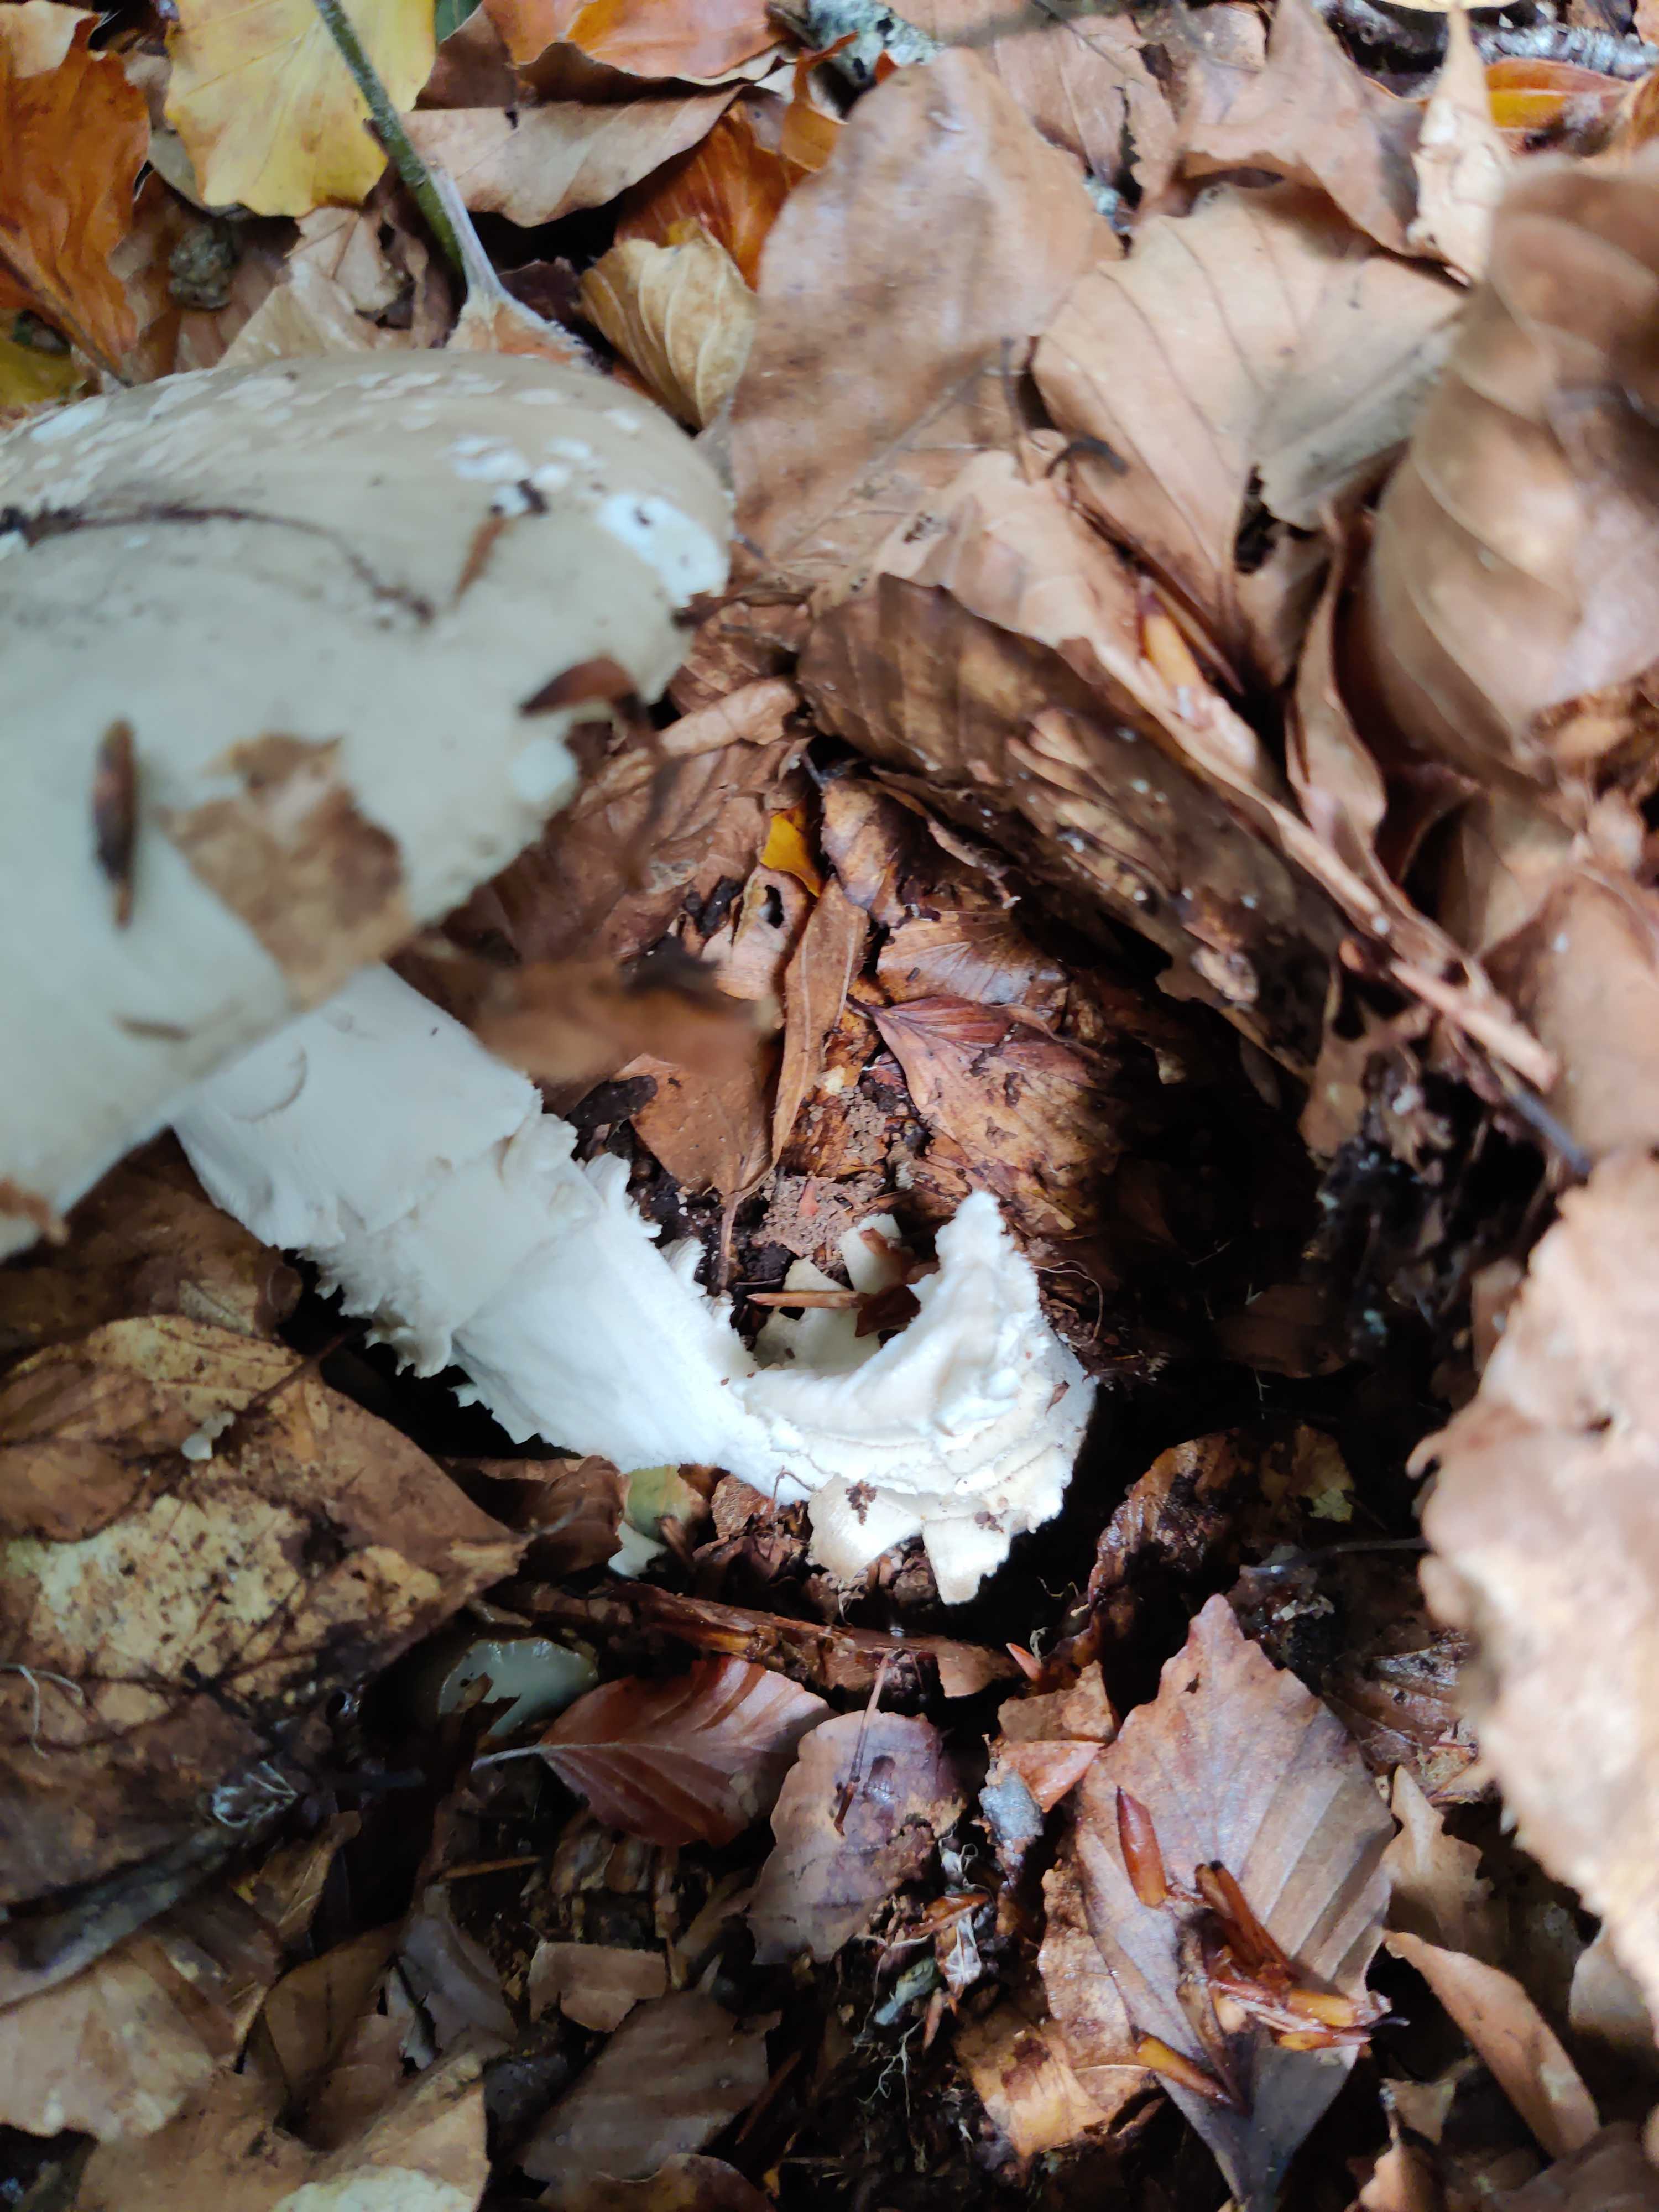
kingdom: Fungi
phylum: Basidiomycota
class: Agaricomycetes
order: Agaricales
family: Amanitaceae
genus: Amanita
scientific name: Amanita
